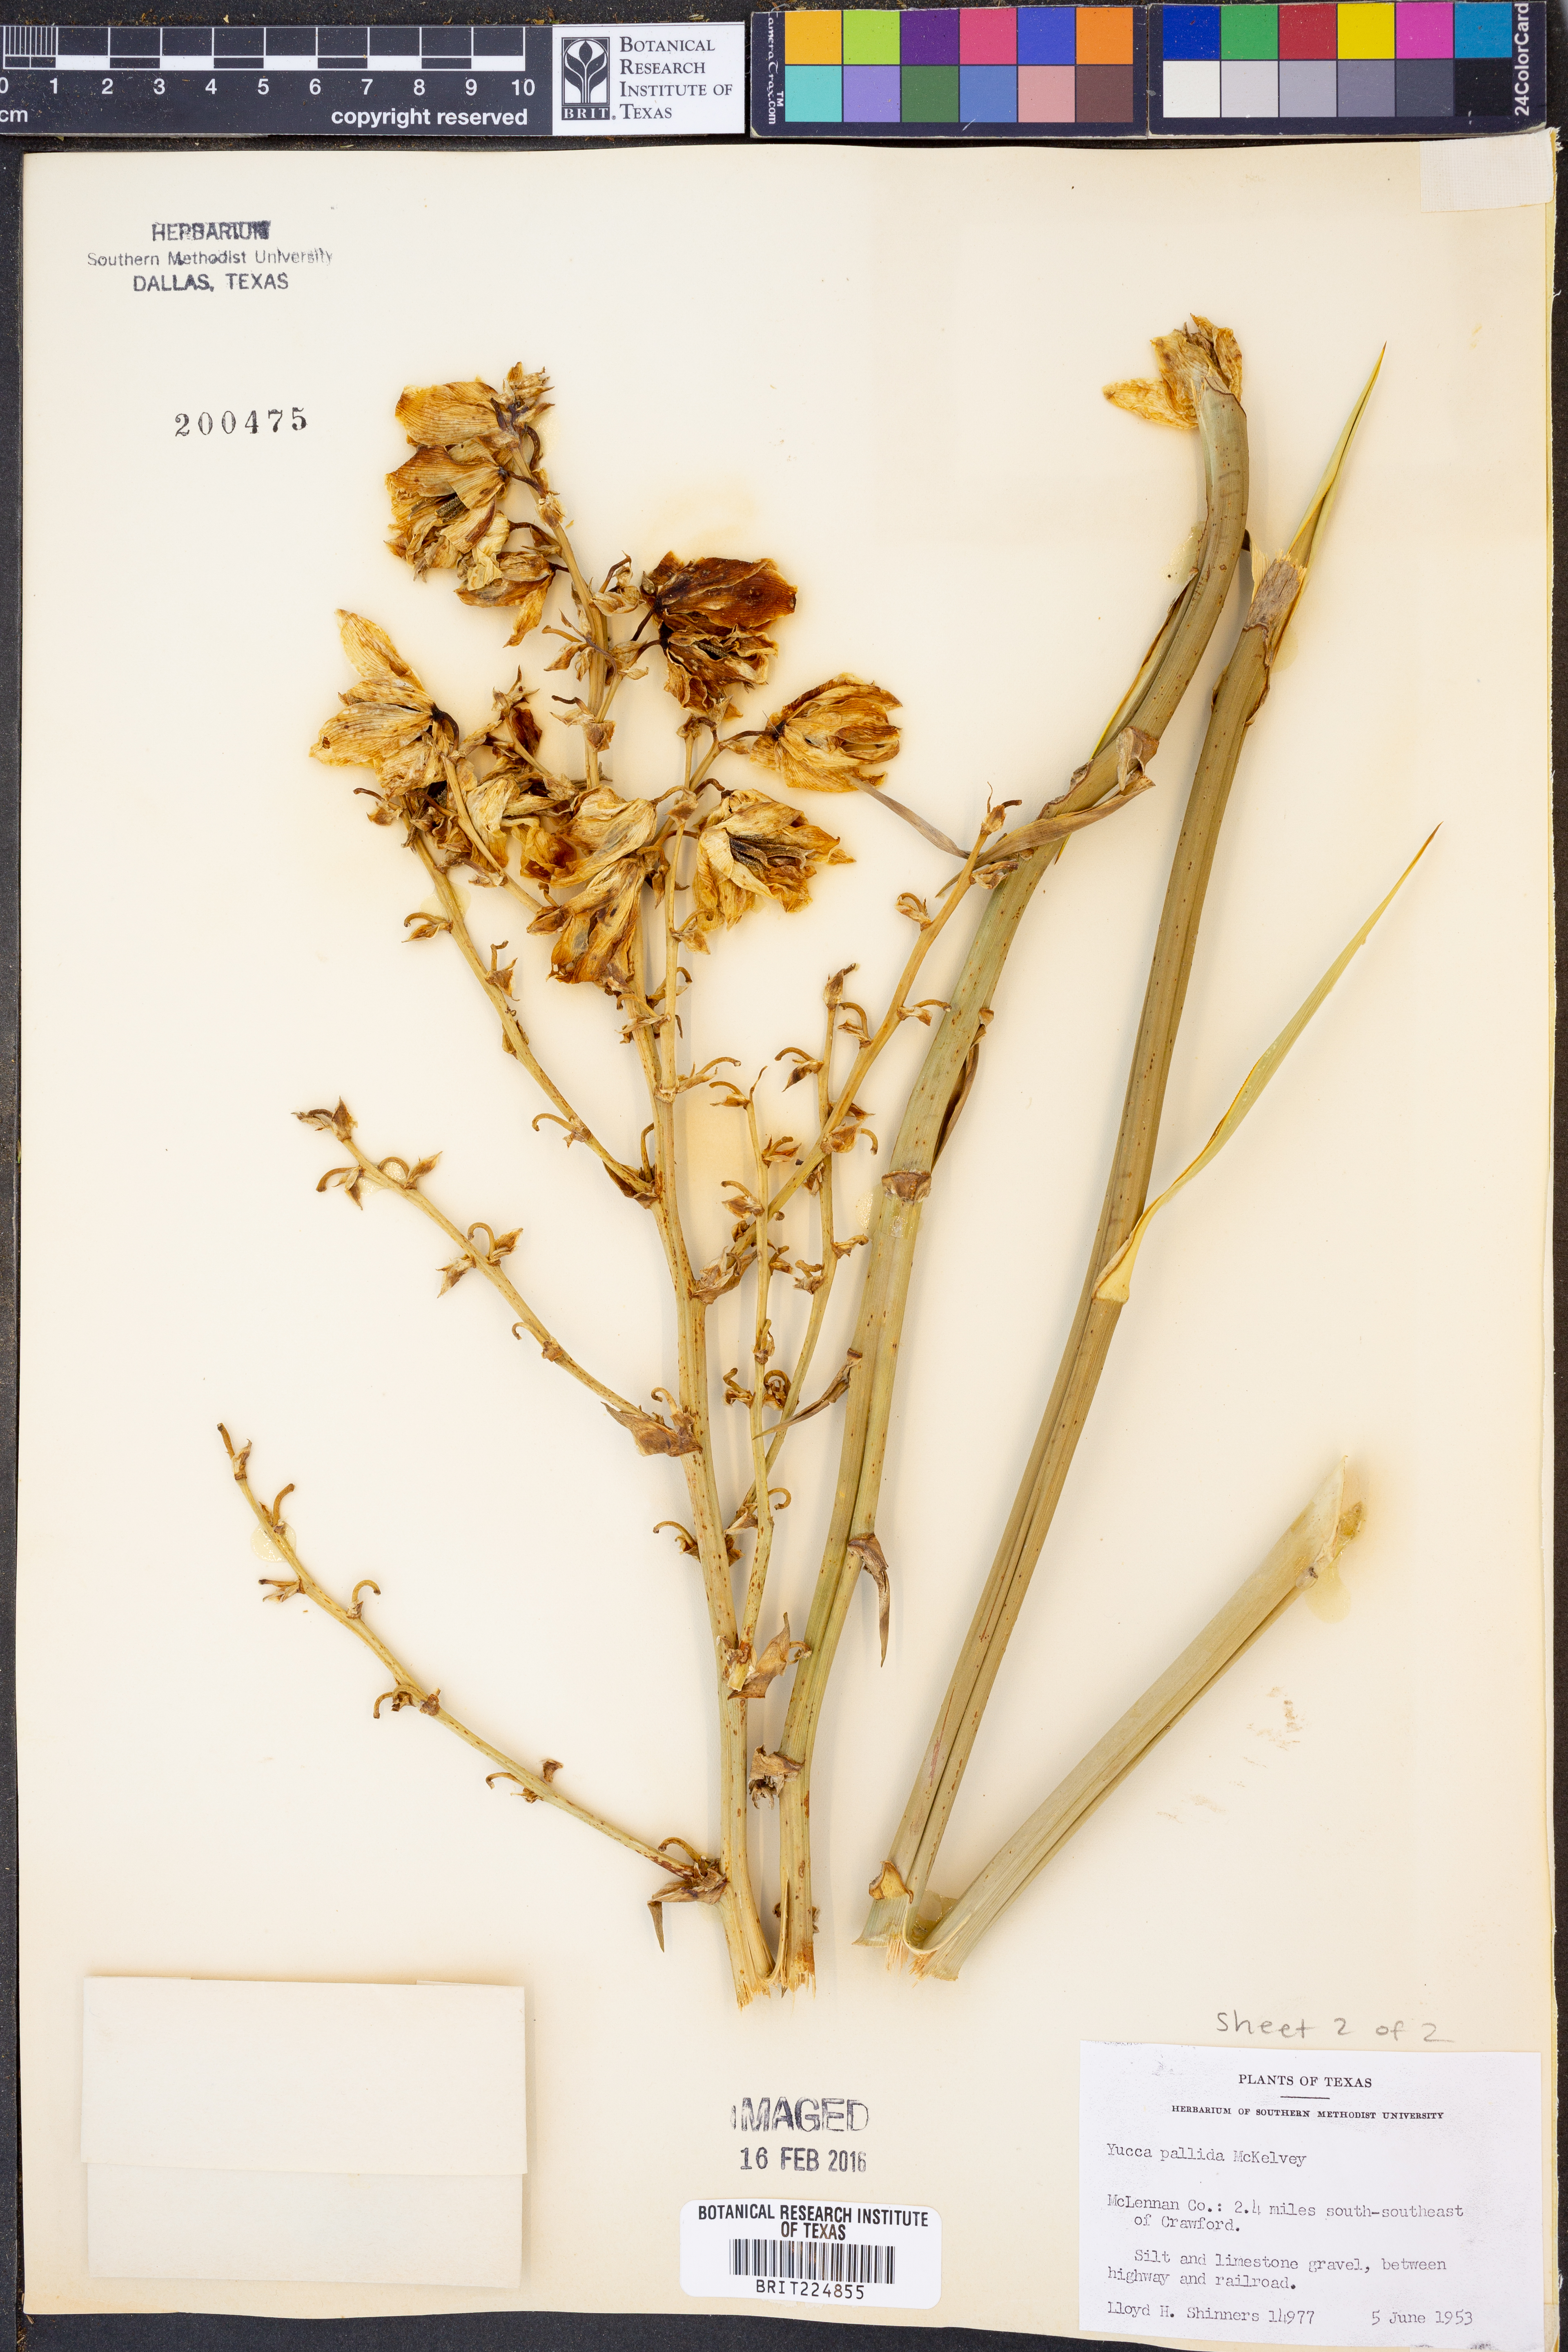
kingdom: Plantae
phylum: Tracheophyta
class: Liliopsida
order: Asparagales
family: Asparagaceae
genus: Yucca
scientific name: Yucca pallida
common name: Pale leaf yucca
